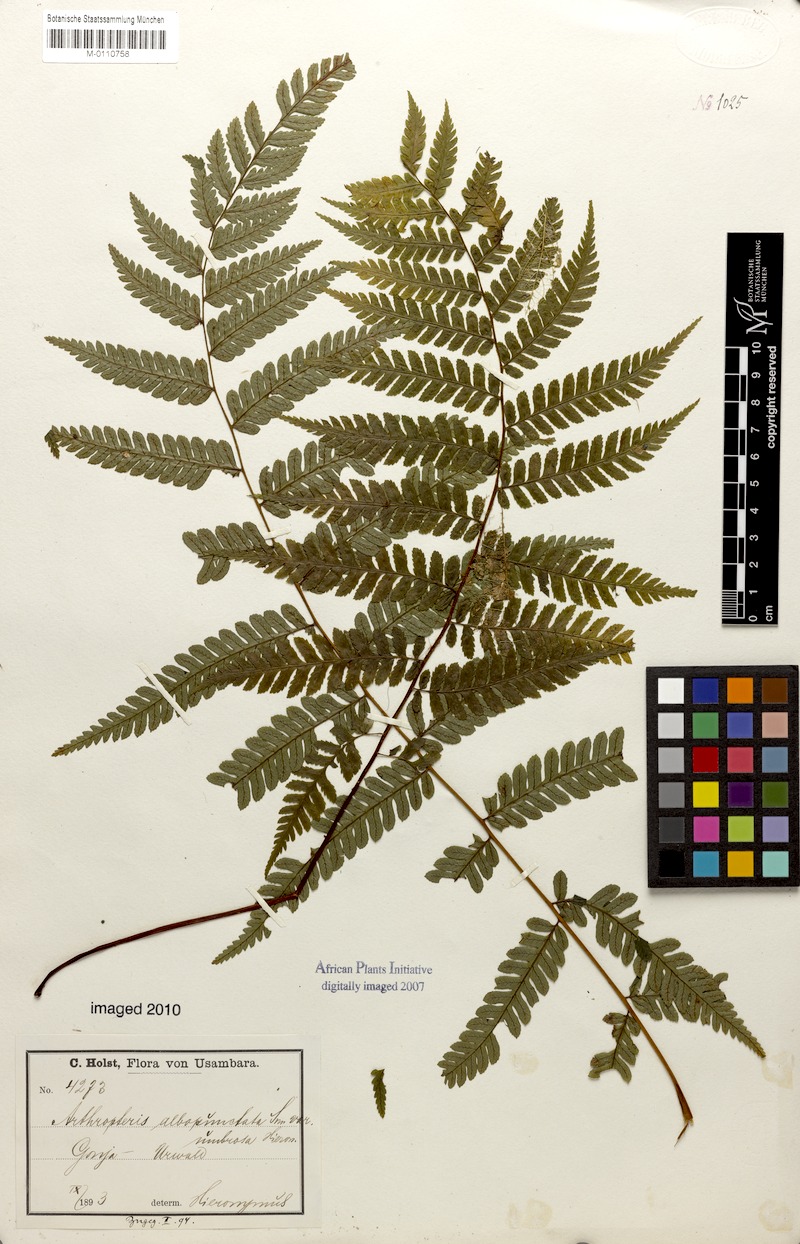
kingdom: Plantae
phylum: Tracheophyta
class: Polypodiopsida
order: Polypodiales
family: Tectariaceae
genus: Arthropteris
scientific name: Arthropteris orientalis
